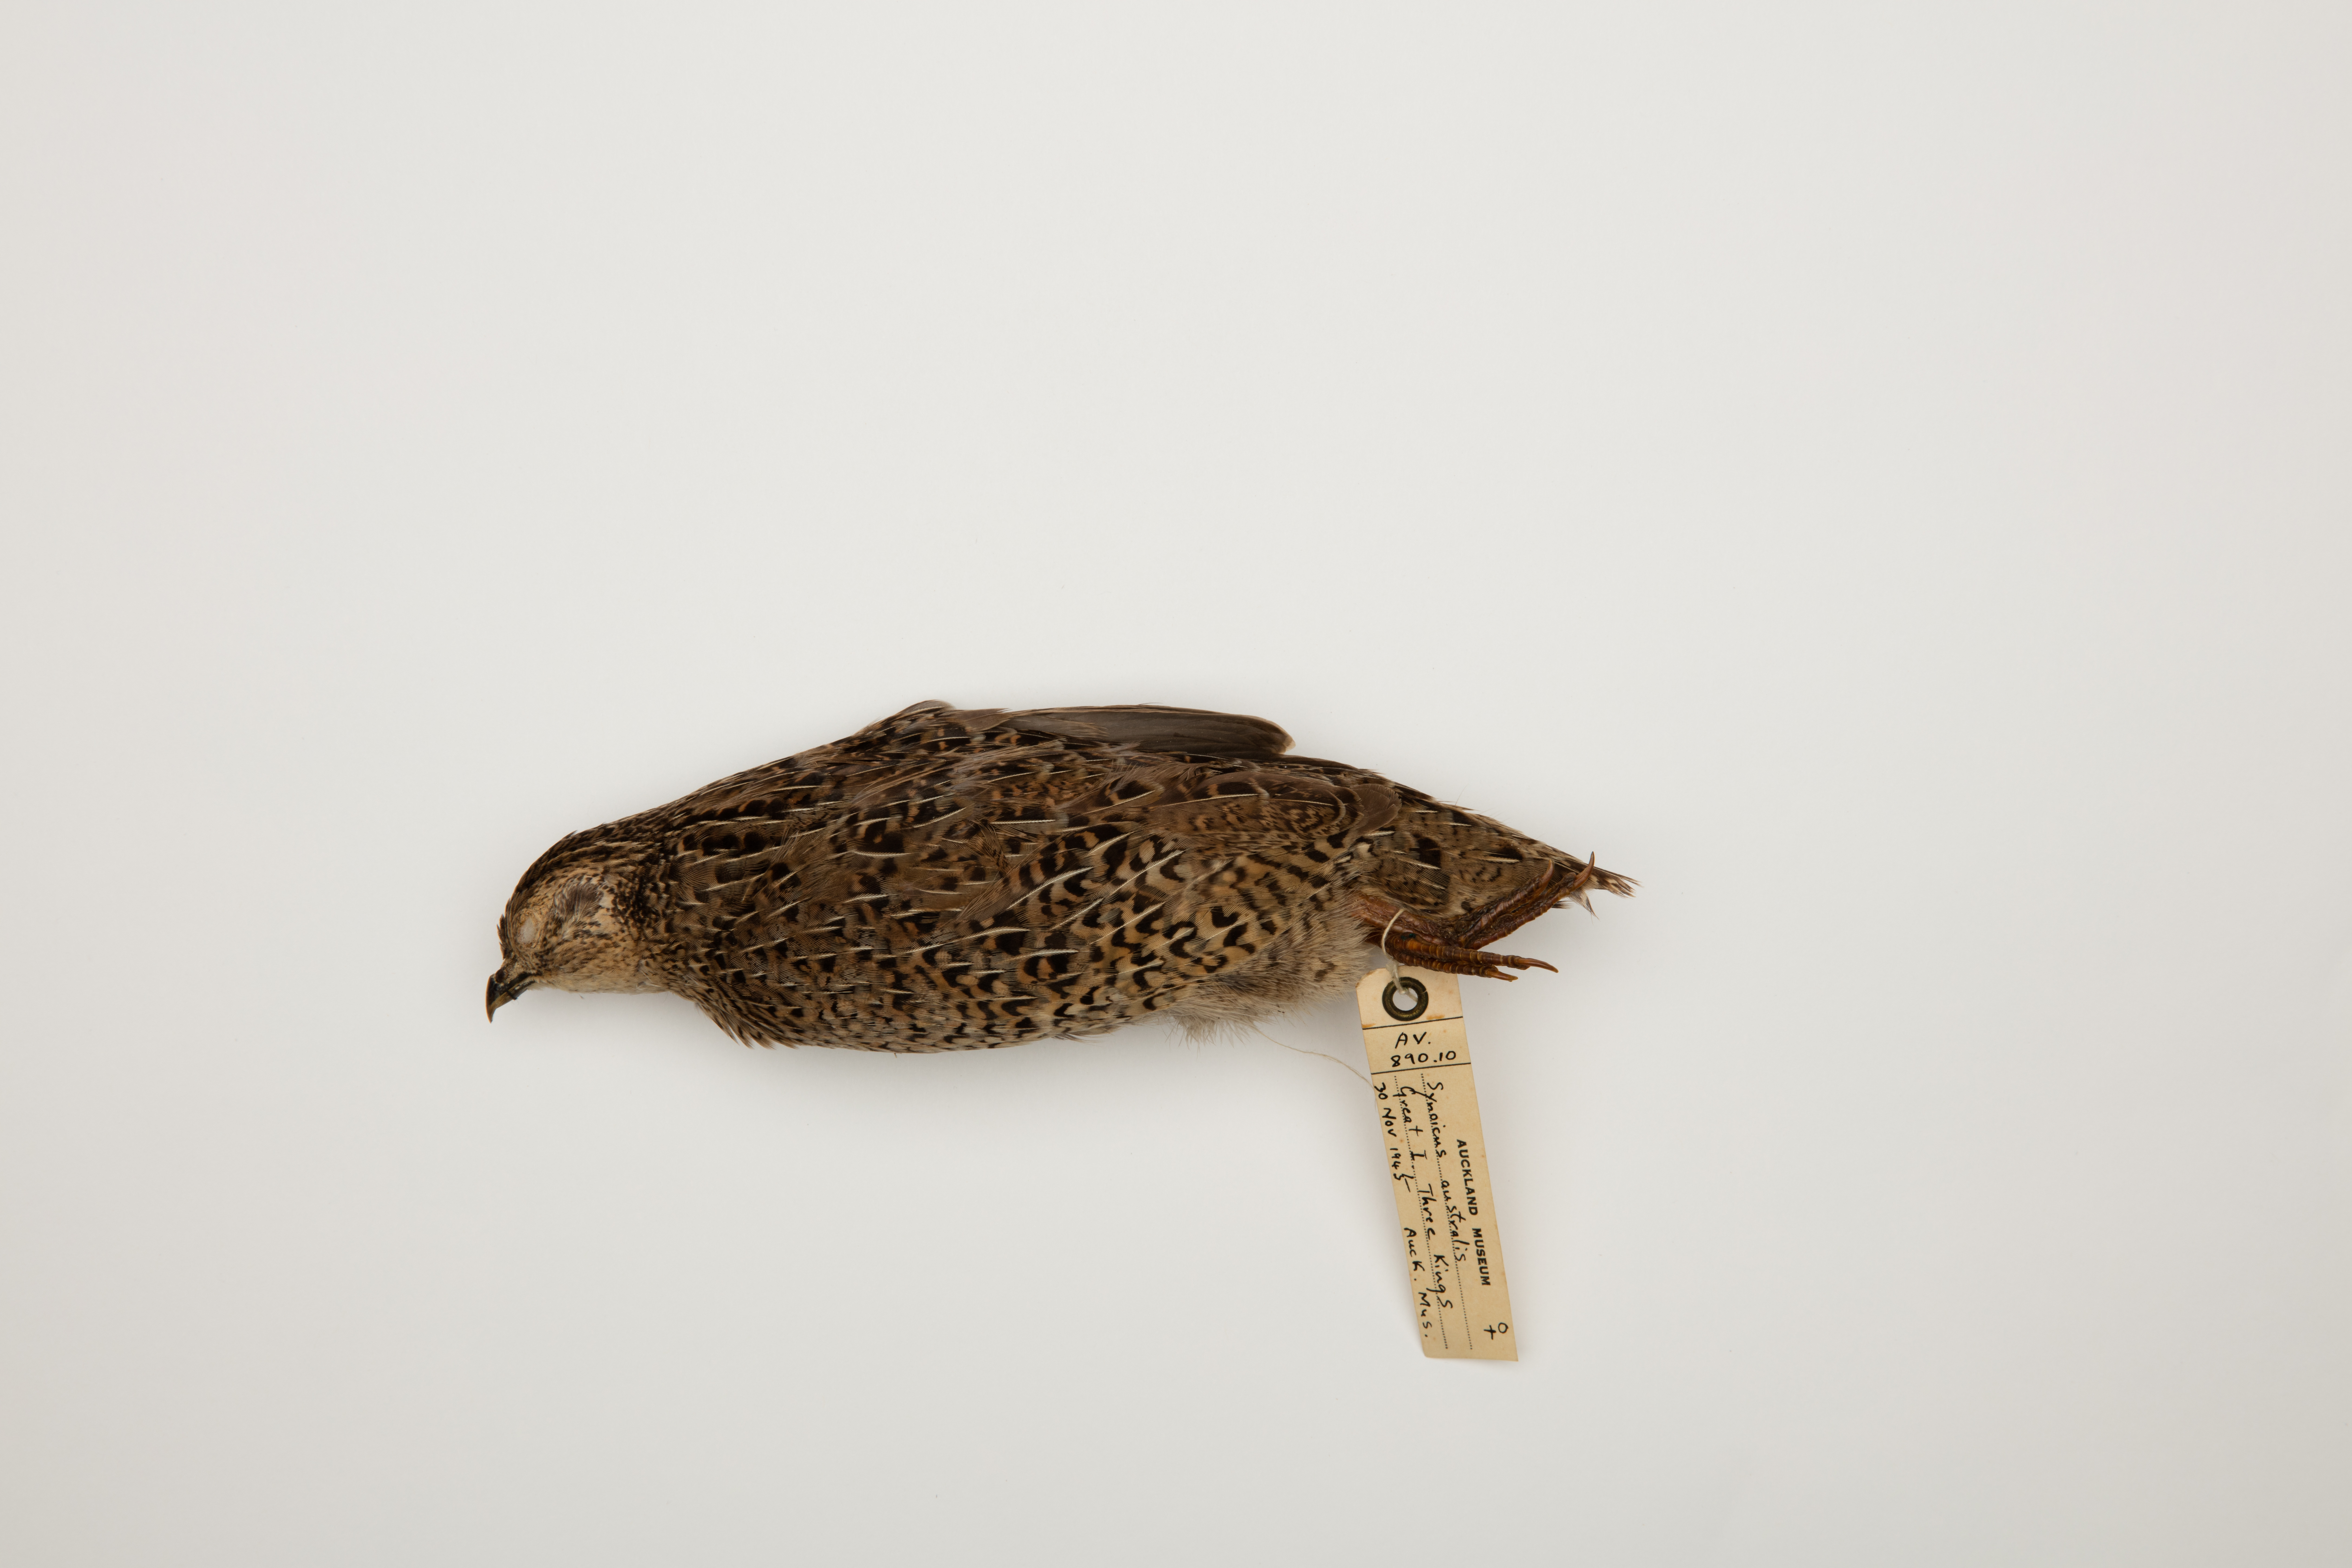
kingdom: Animalia
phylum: Chordata
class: Aves
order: Galliformes
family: Phasianidae
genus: Synoicus
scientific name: Synoicus ypsilophorus
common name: Brown quail
